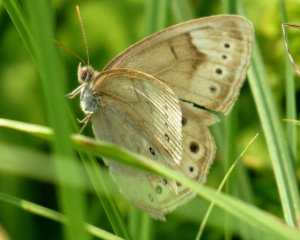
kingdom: Animalia
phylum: Arthropoda
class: Insecta
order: Lepidoptera
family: Nymphalidae
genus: Lethe
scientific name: Lethe eurydice
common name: Eyed Brown
